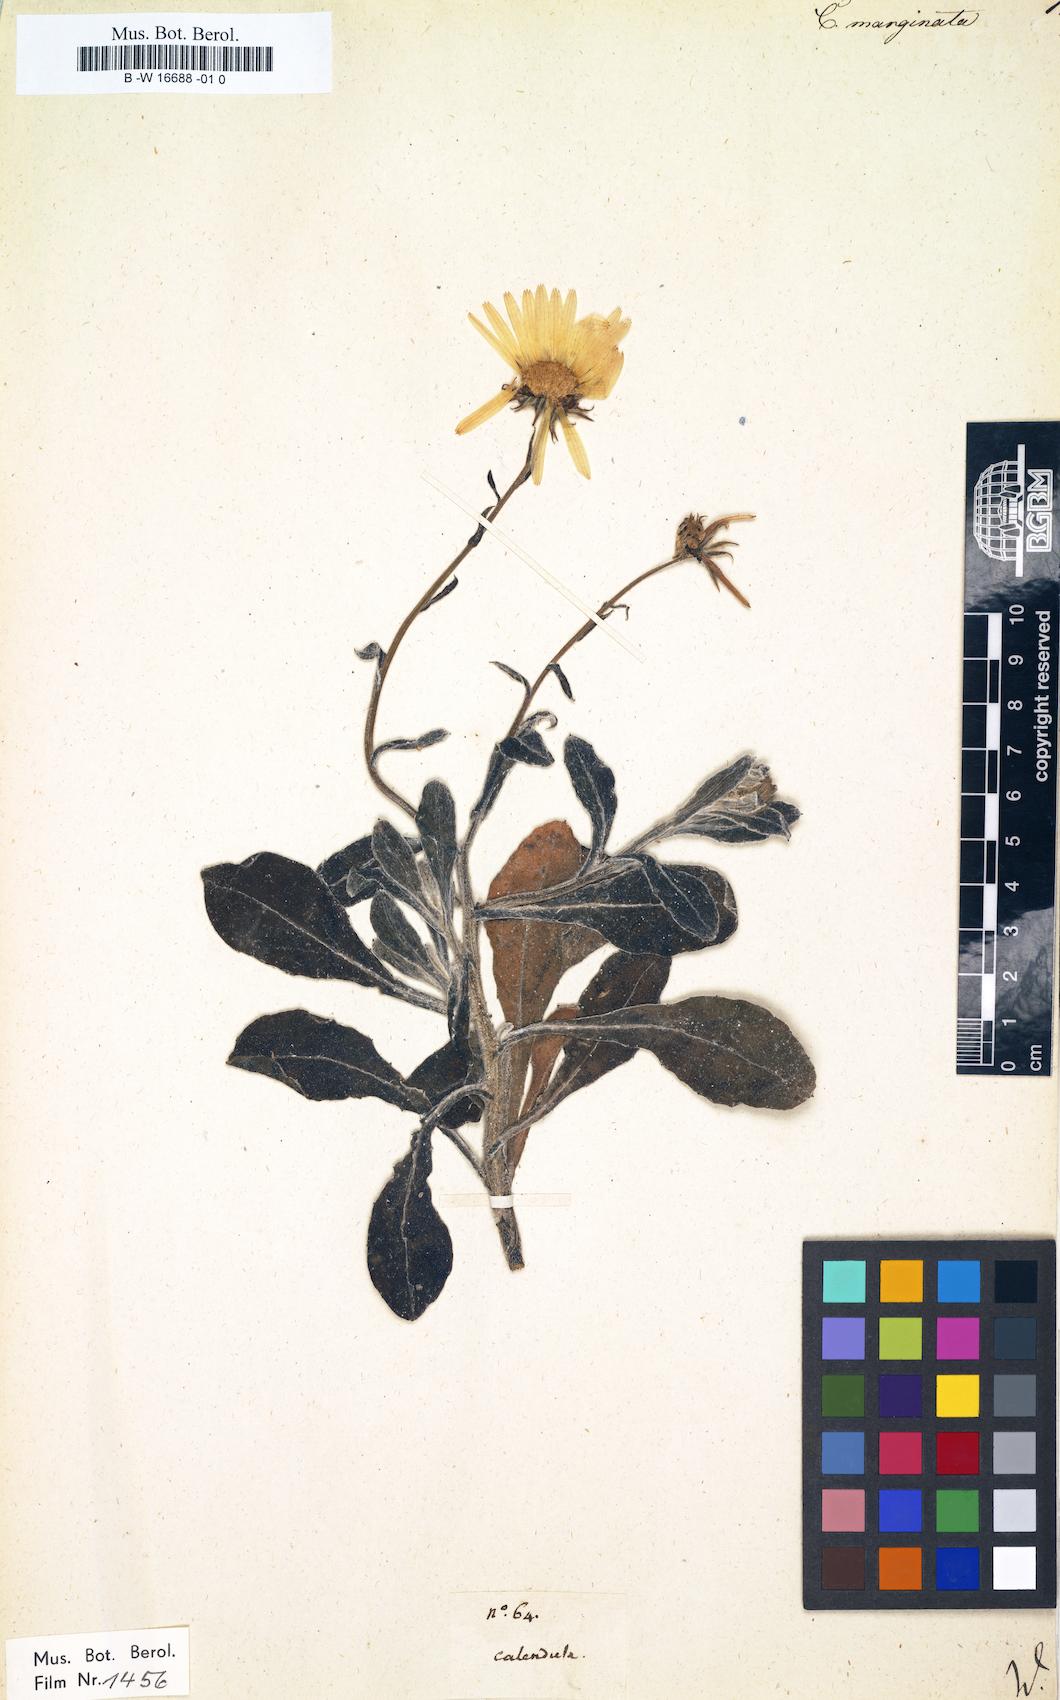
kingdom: Plantae
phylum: Tracheophyta
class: Magnoliopsida
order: Asterales
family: Asteraceae
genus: Calendula
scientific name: Calendula suffruticosa
